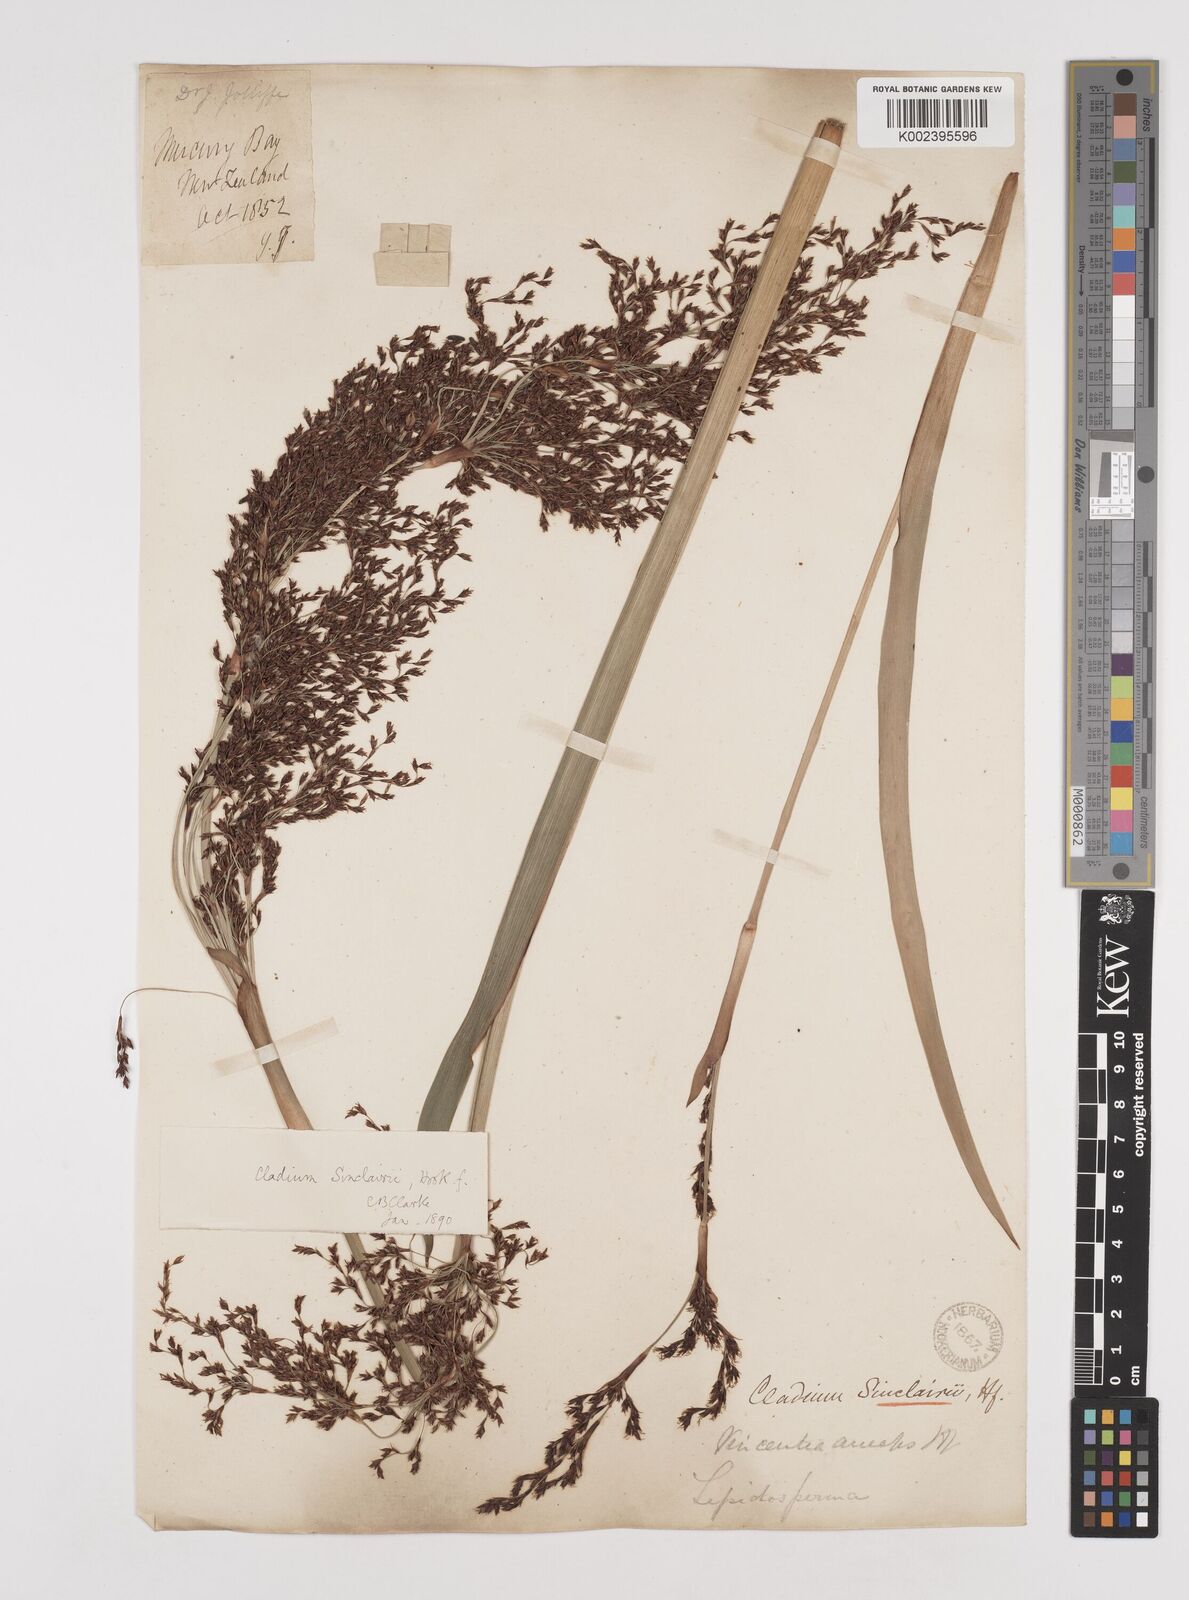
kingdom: Plantae
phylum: Tracheophyta
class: Liliopsida
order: Poales
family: Cyperaceae
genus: Machaerina
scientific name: Machaerina sinclairii
